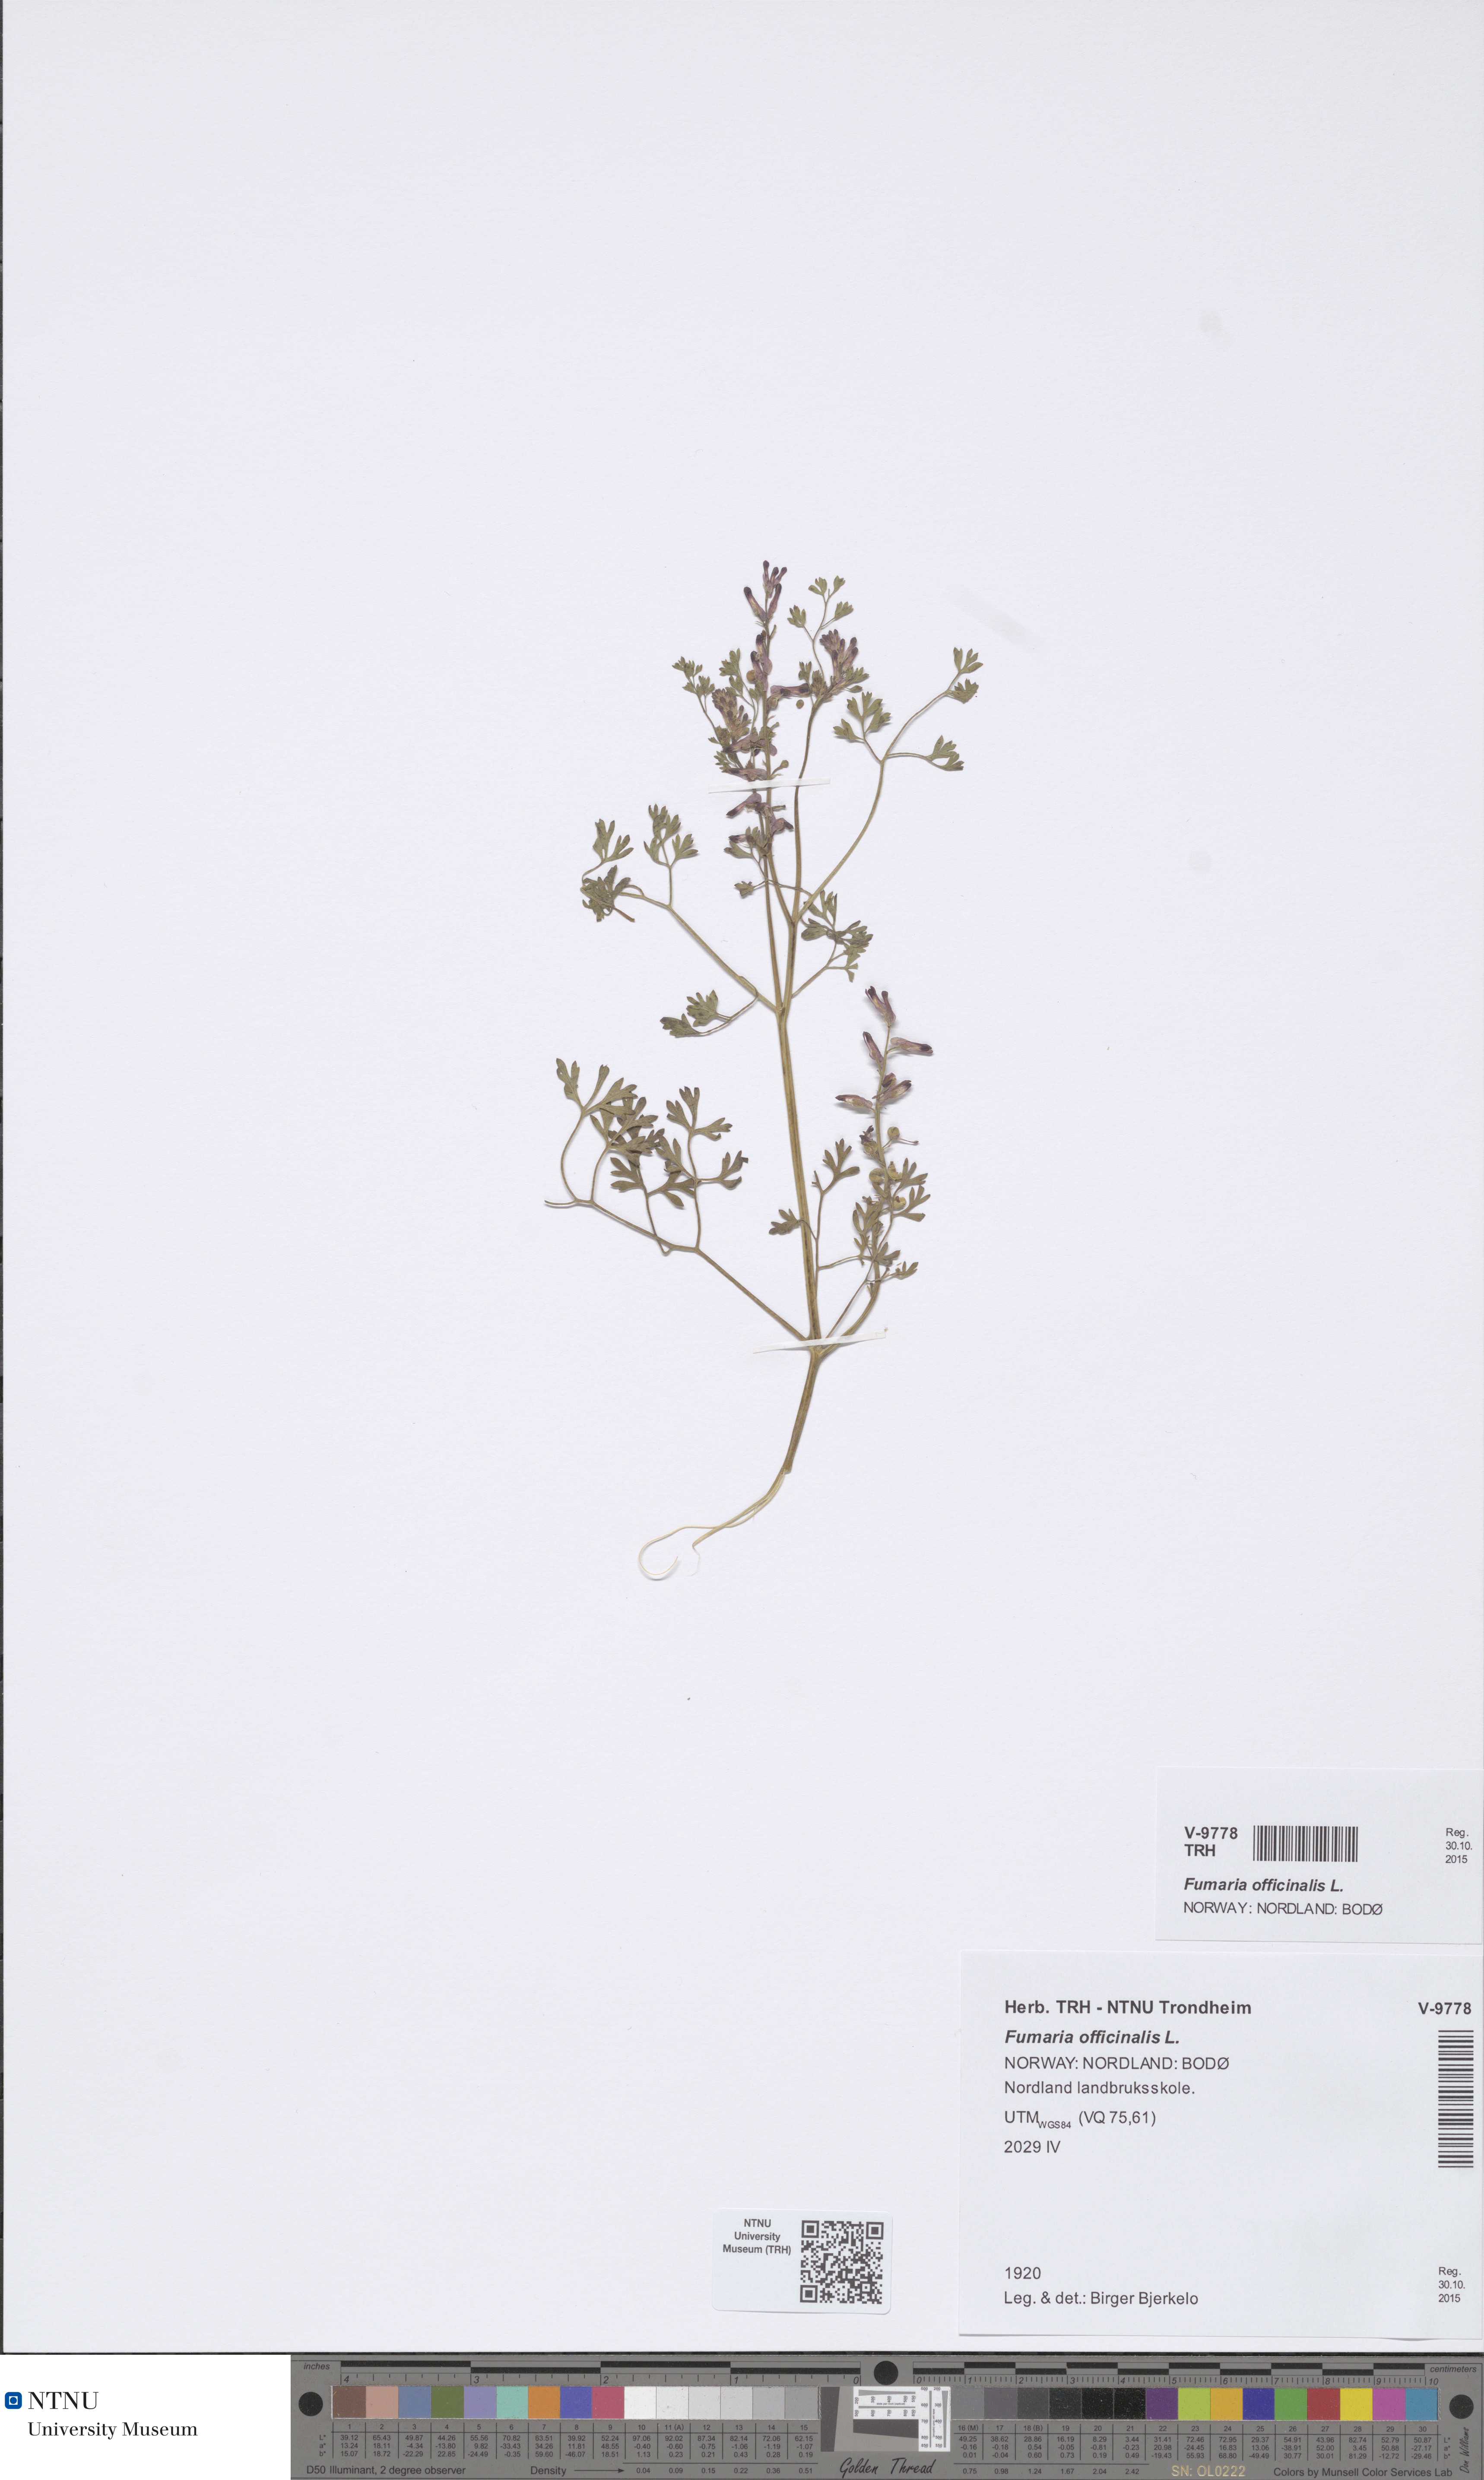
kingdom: Plantae
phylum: Tracheophyta
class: Magnoliopsida
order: Ranunculales
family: Papaveraceae
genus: Fumaria
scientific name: Fumaria officinalis
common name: Common fumitory
